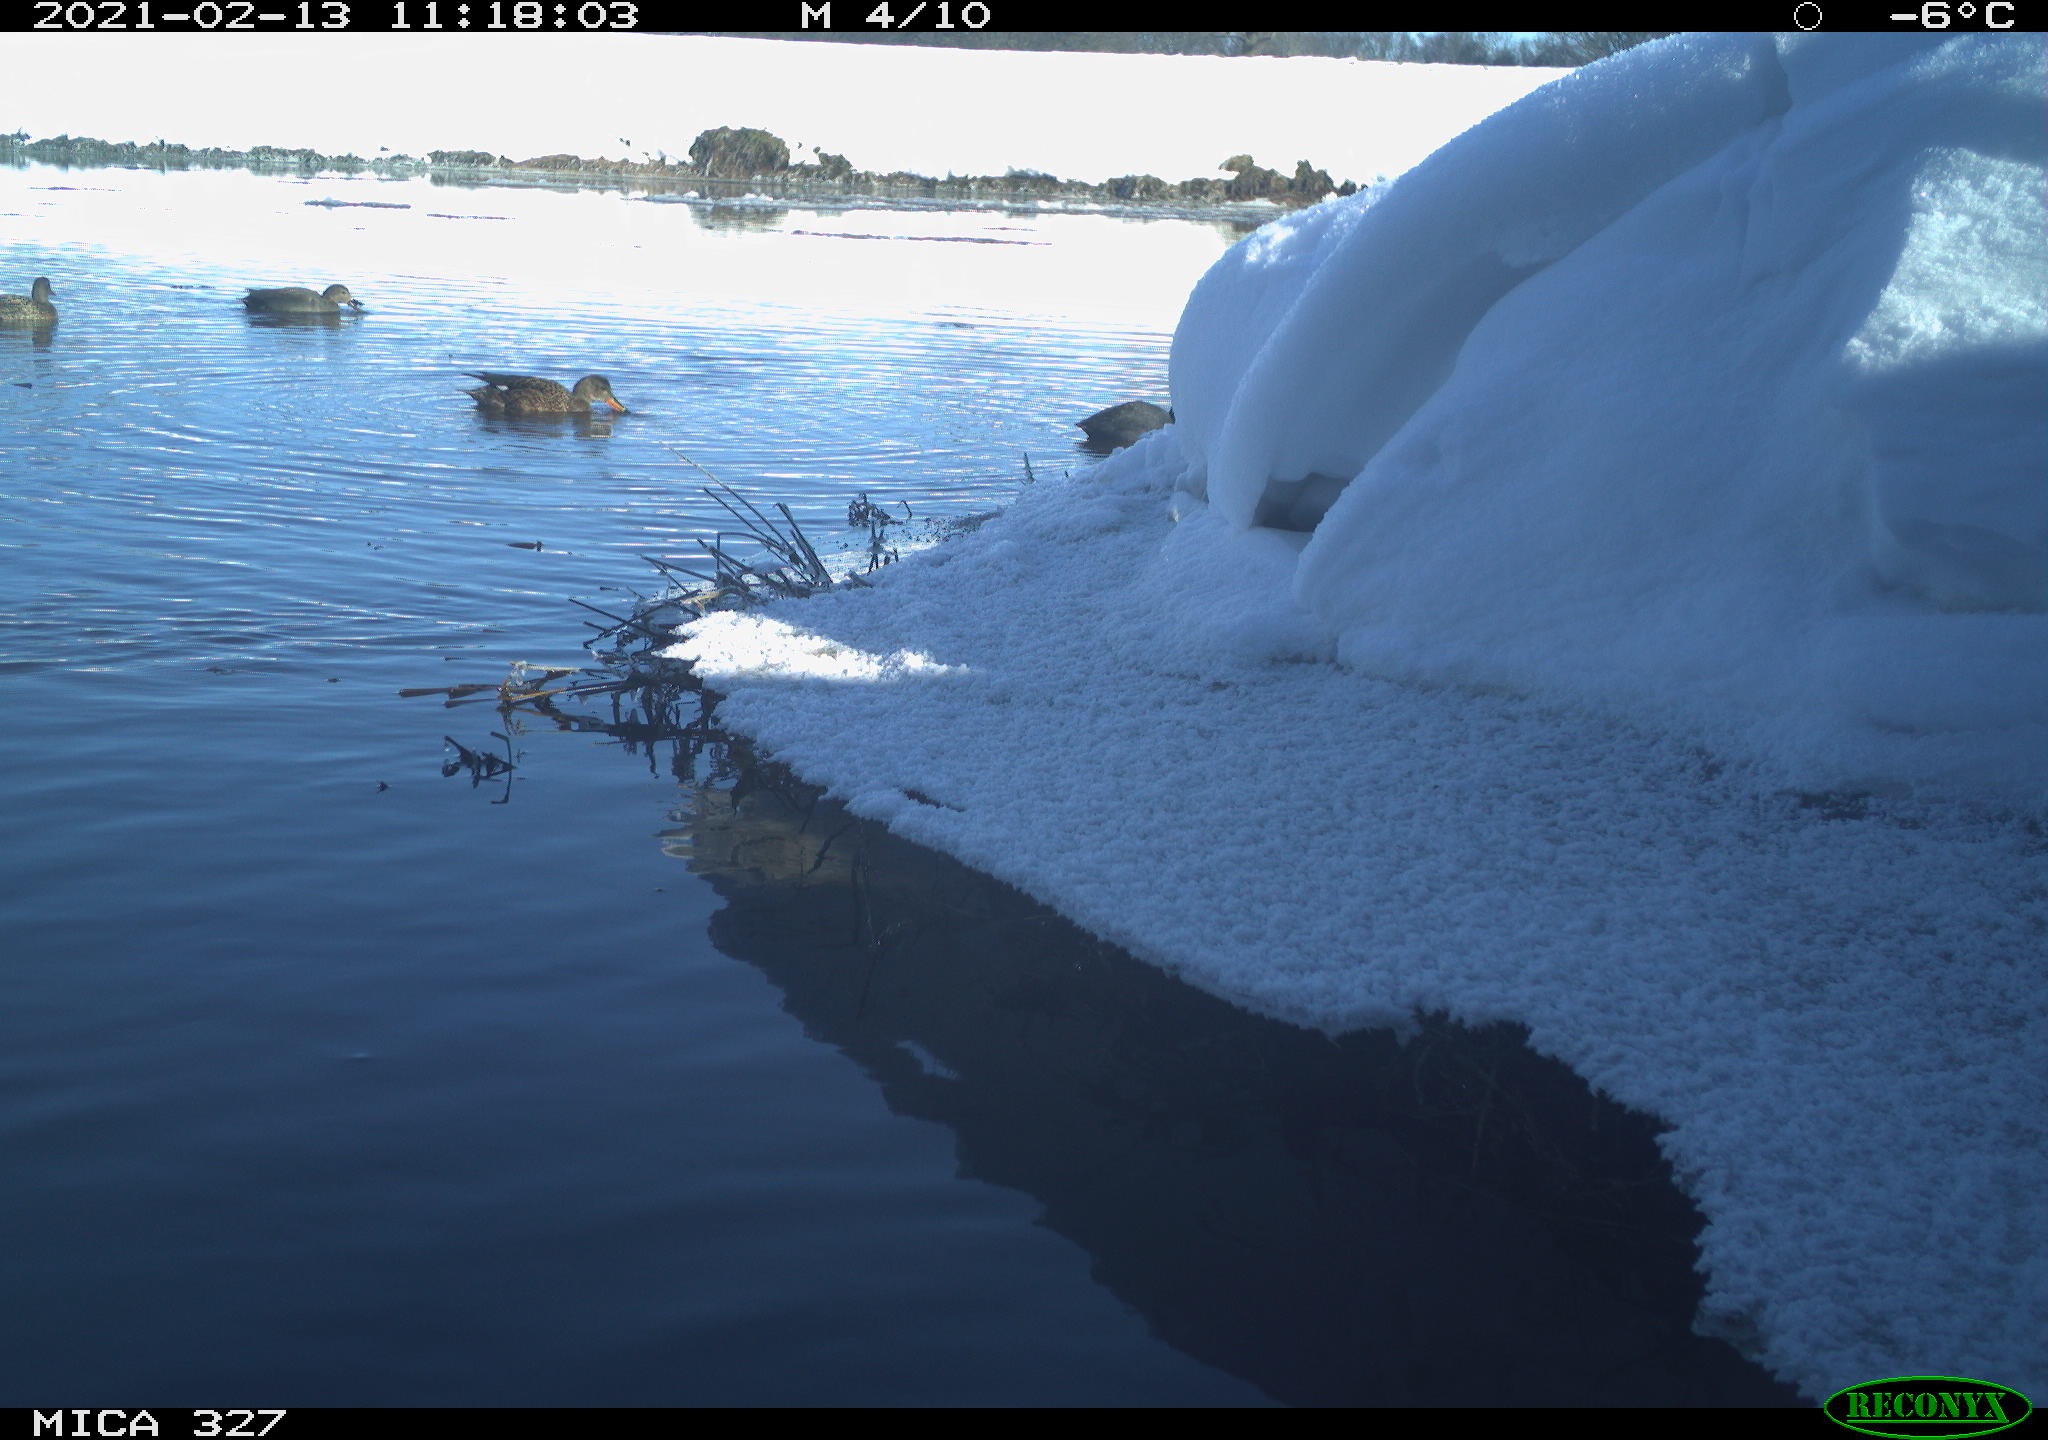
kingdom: Animalia
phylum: Chordata
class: Aves
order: Anseriformes
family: Anatidae
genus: Anas
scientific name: Anas
